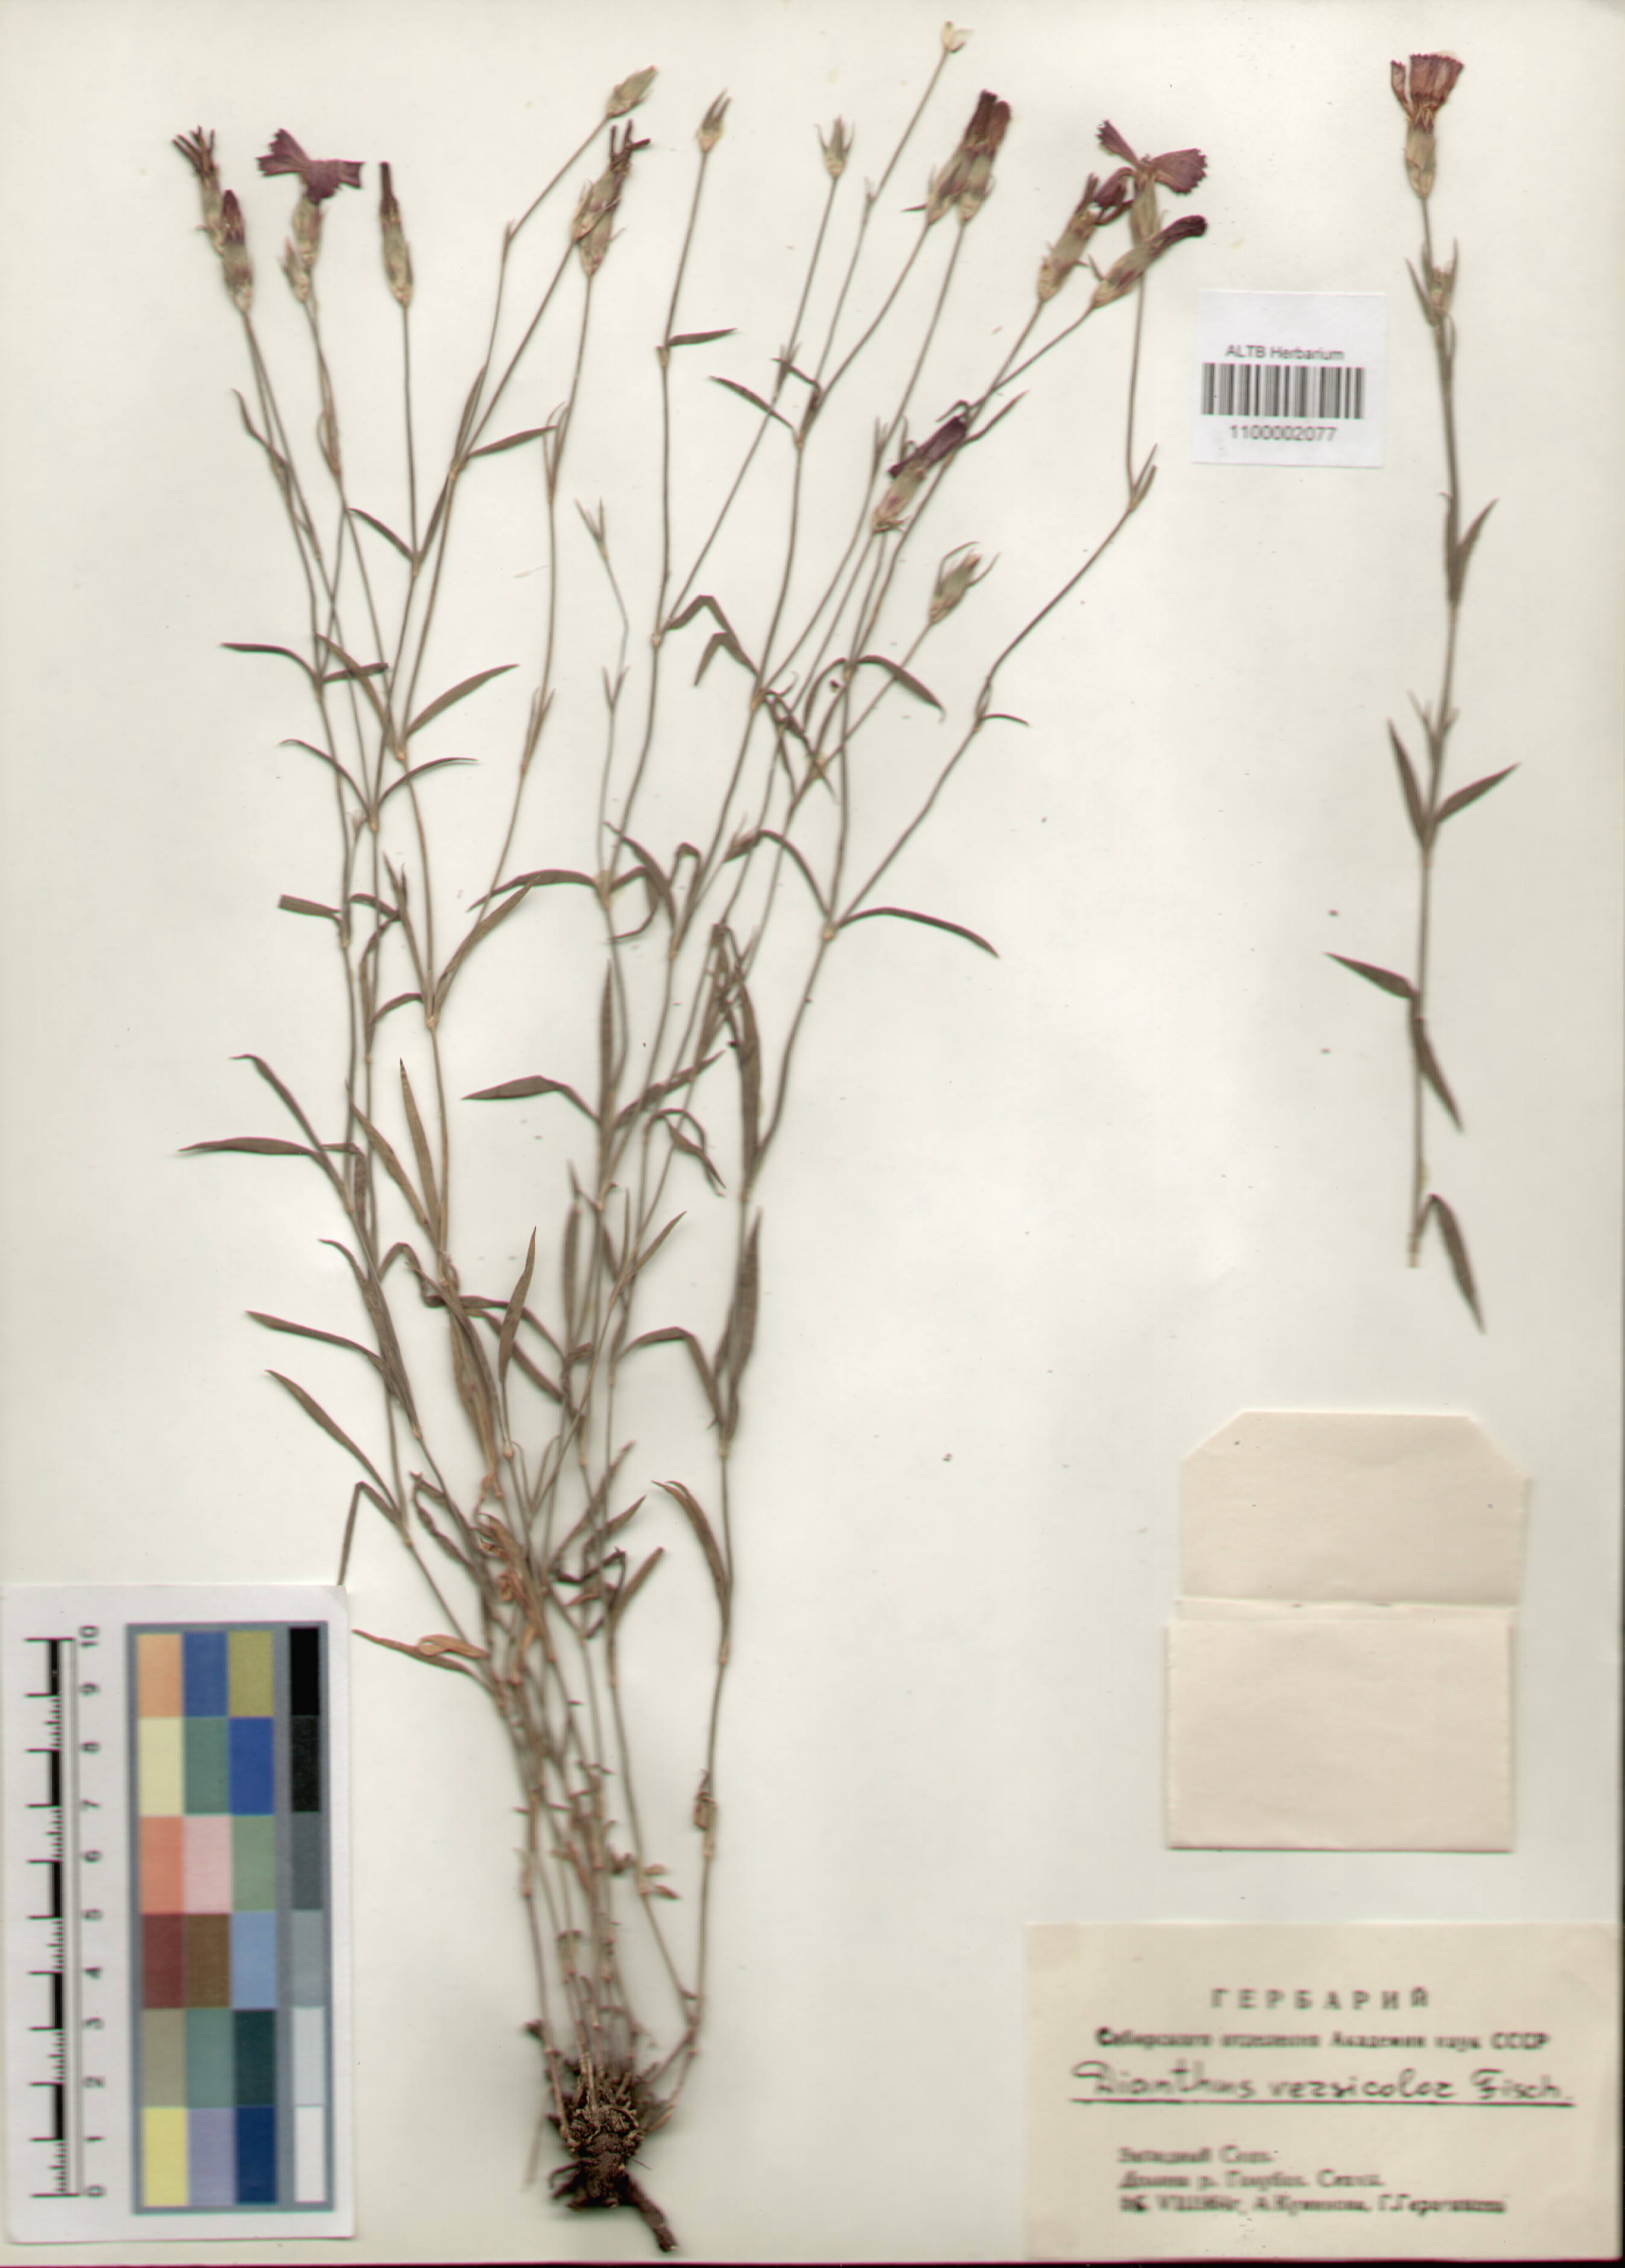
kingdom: Plantae
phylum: Tracheophyta
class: Magnoliopsida
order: Caryophyllales
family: Caryophyllaceae
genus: Dianthus
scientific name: Dianthus chinensis
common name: Rainbow pink
